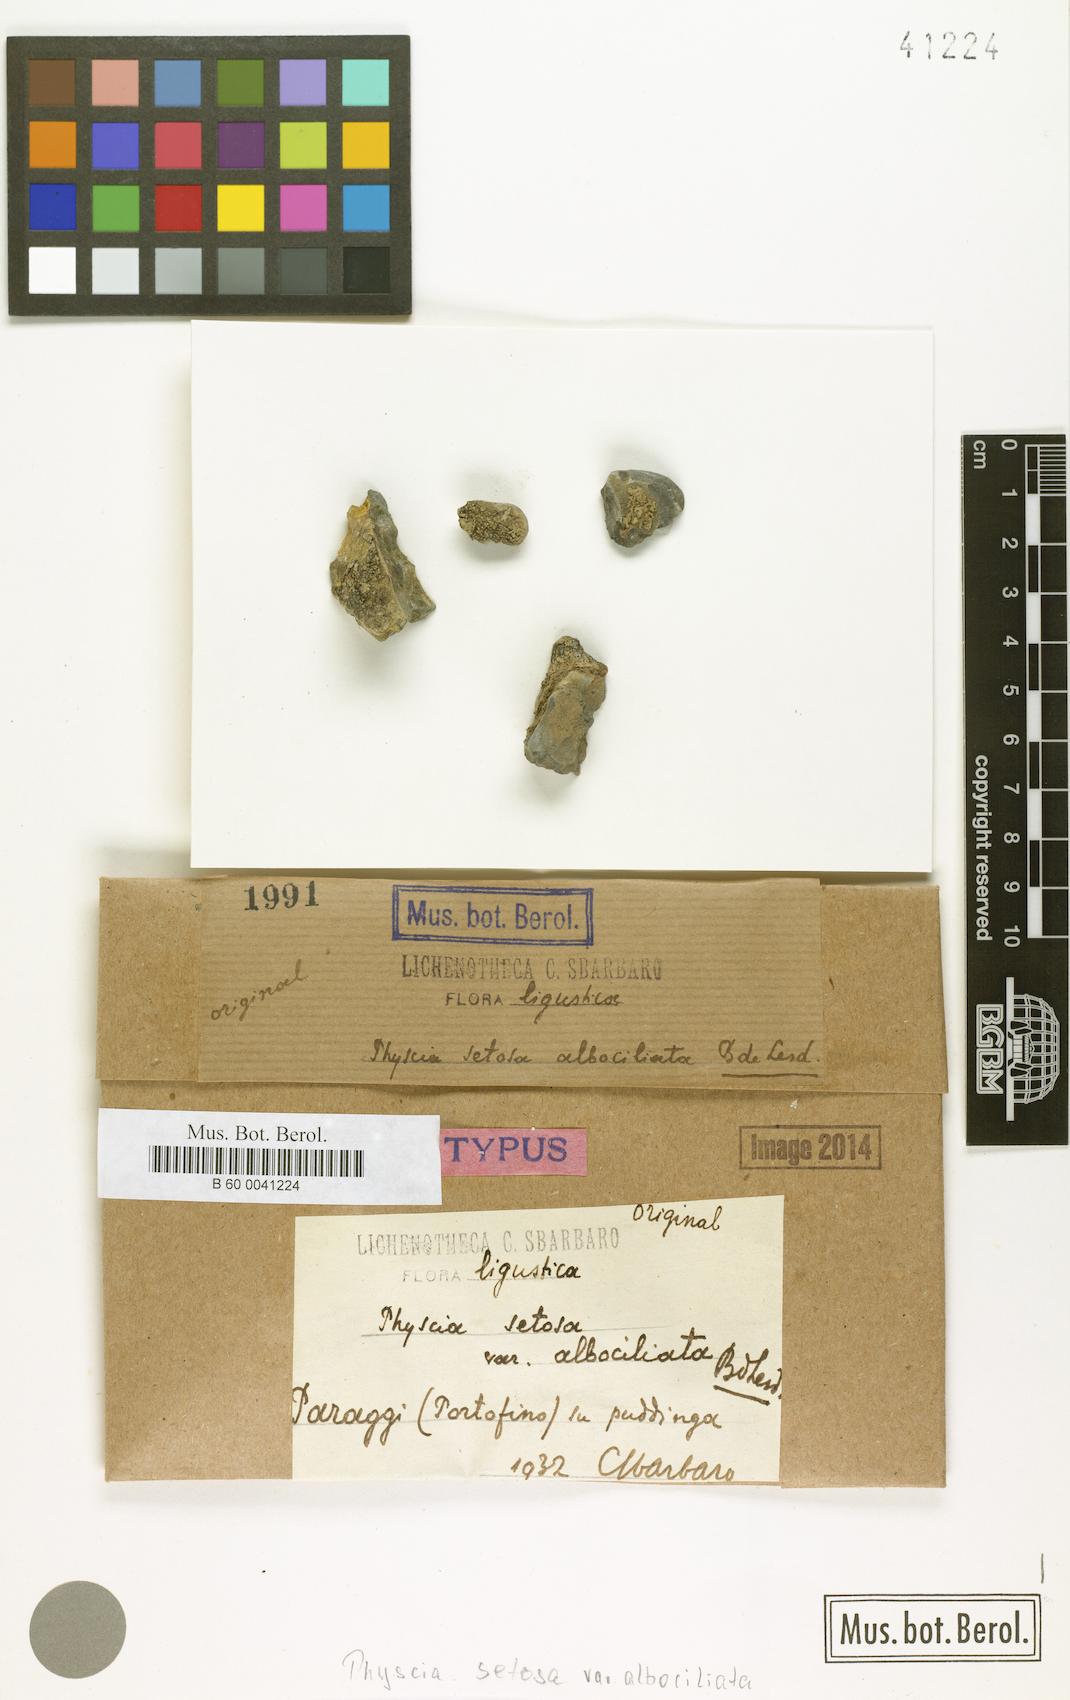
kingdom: Fungi
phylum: Ascomycota
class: Lecanoromycetes
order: Caliciales
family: Physciaceae
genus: Phaeophyscia
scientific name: Phaeophyscia hispidula
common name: Whiskered shadow lichen
